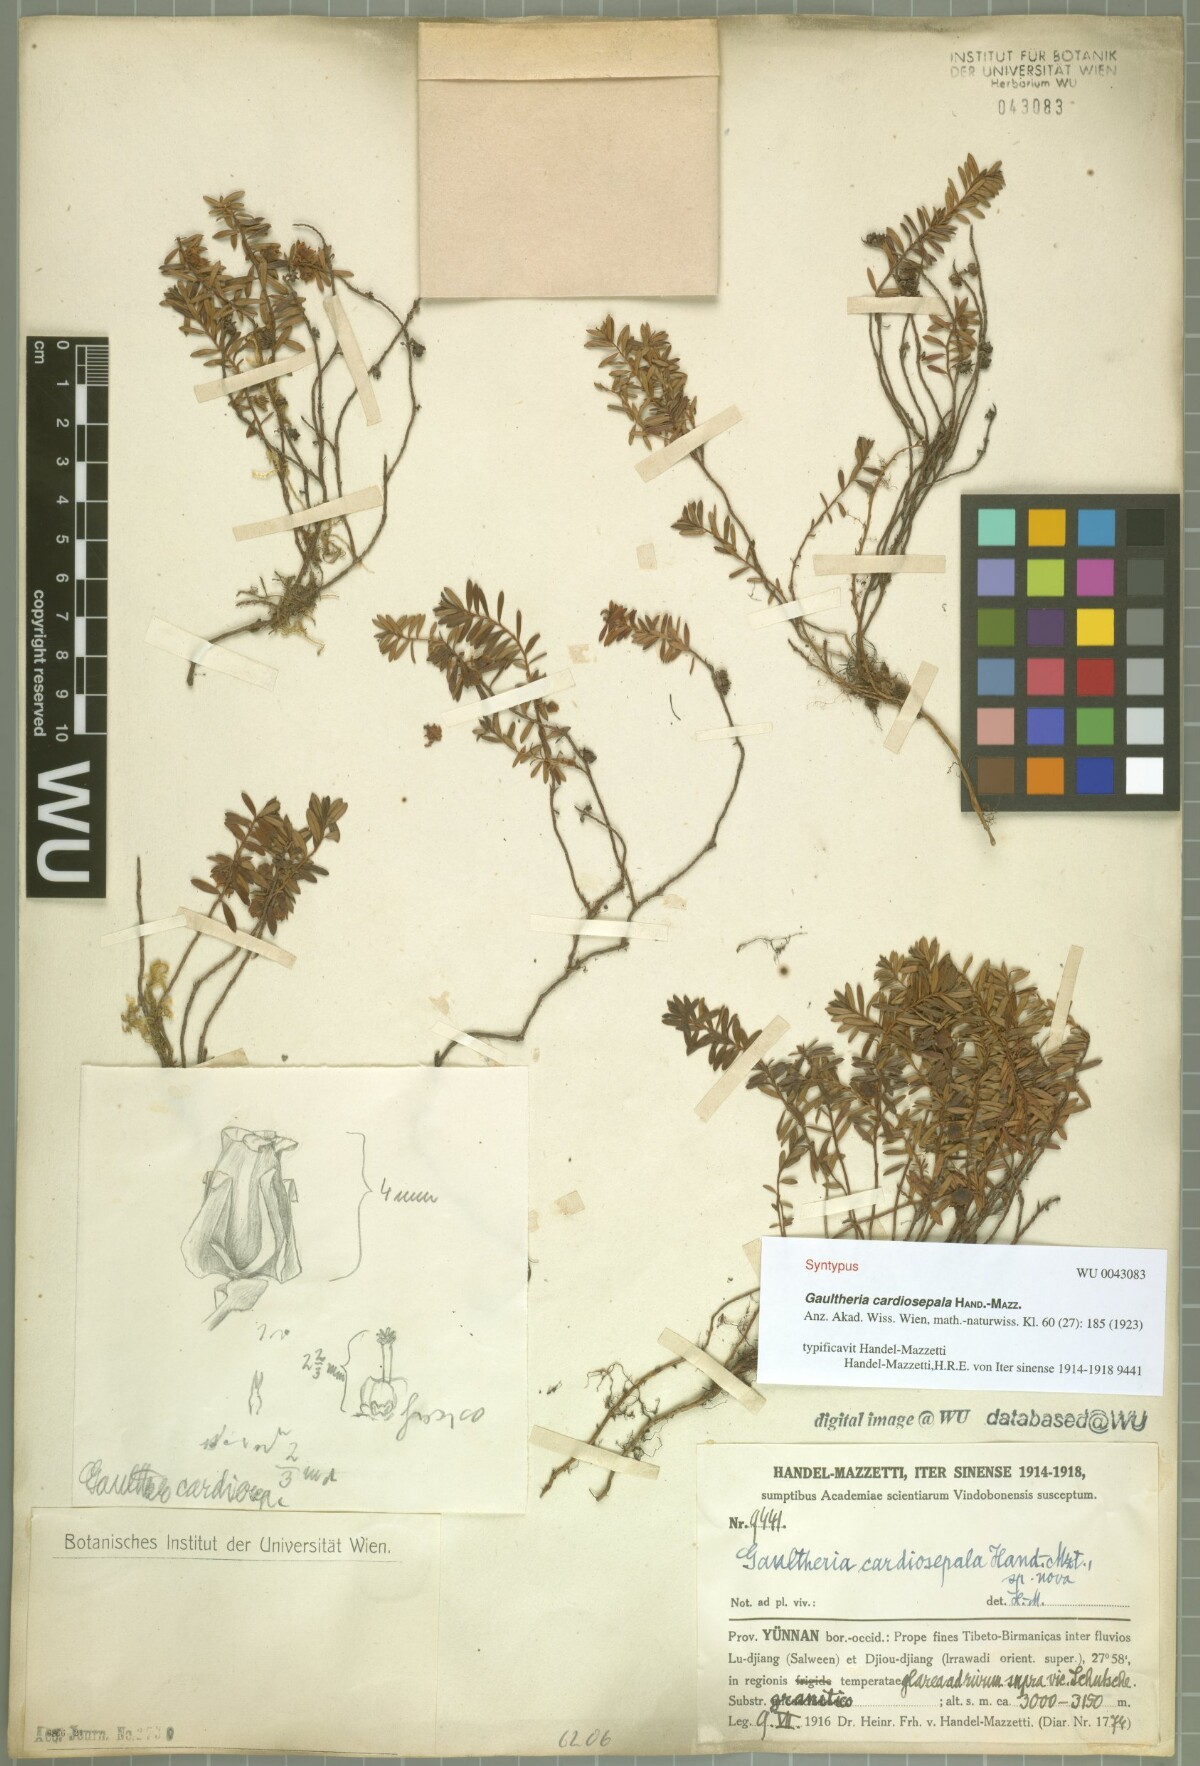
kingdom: Plantae
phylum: Tracheophyta
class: Magnoliopsida
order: Ericales
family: Ericaceae
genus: Gaultheria
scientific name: Gaultheria cardiosepala
